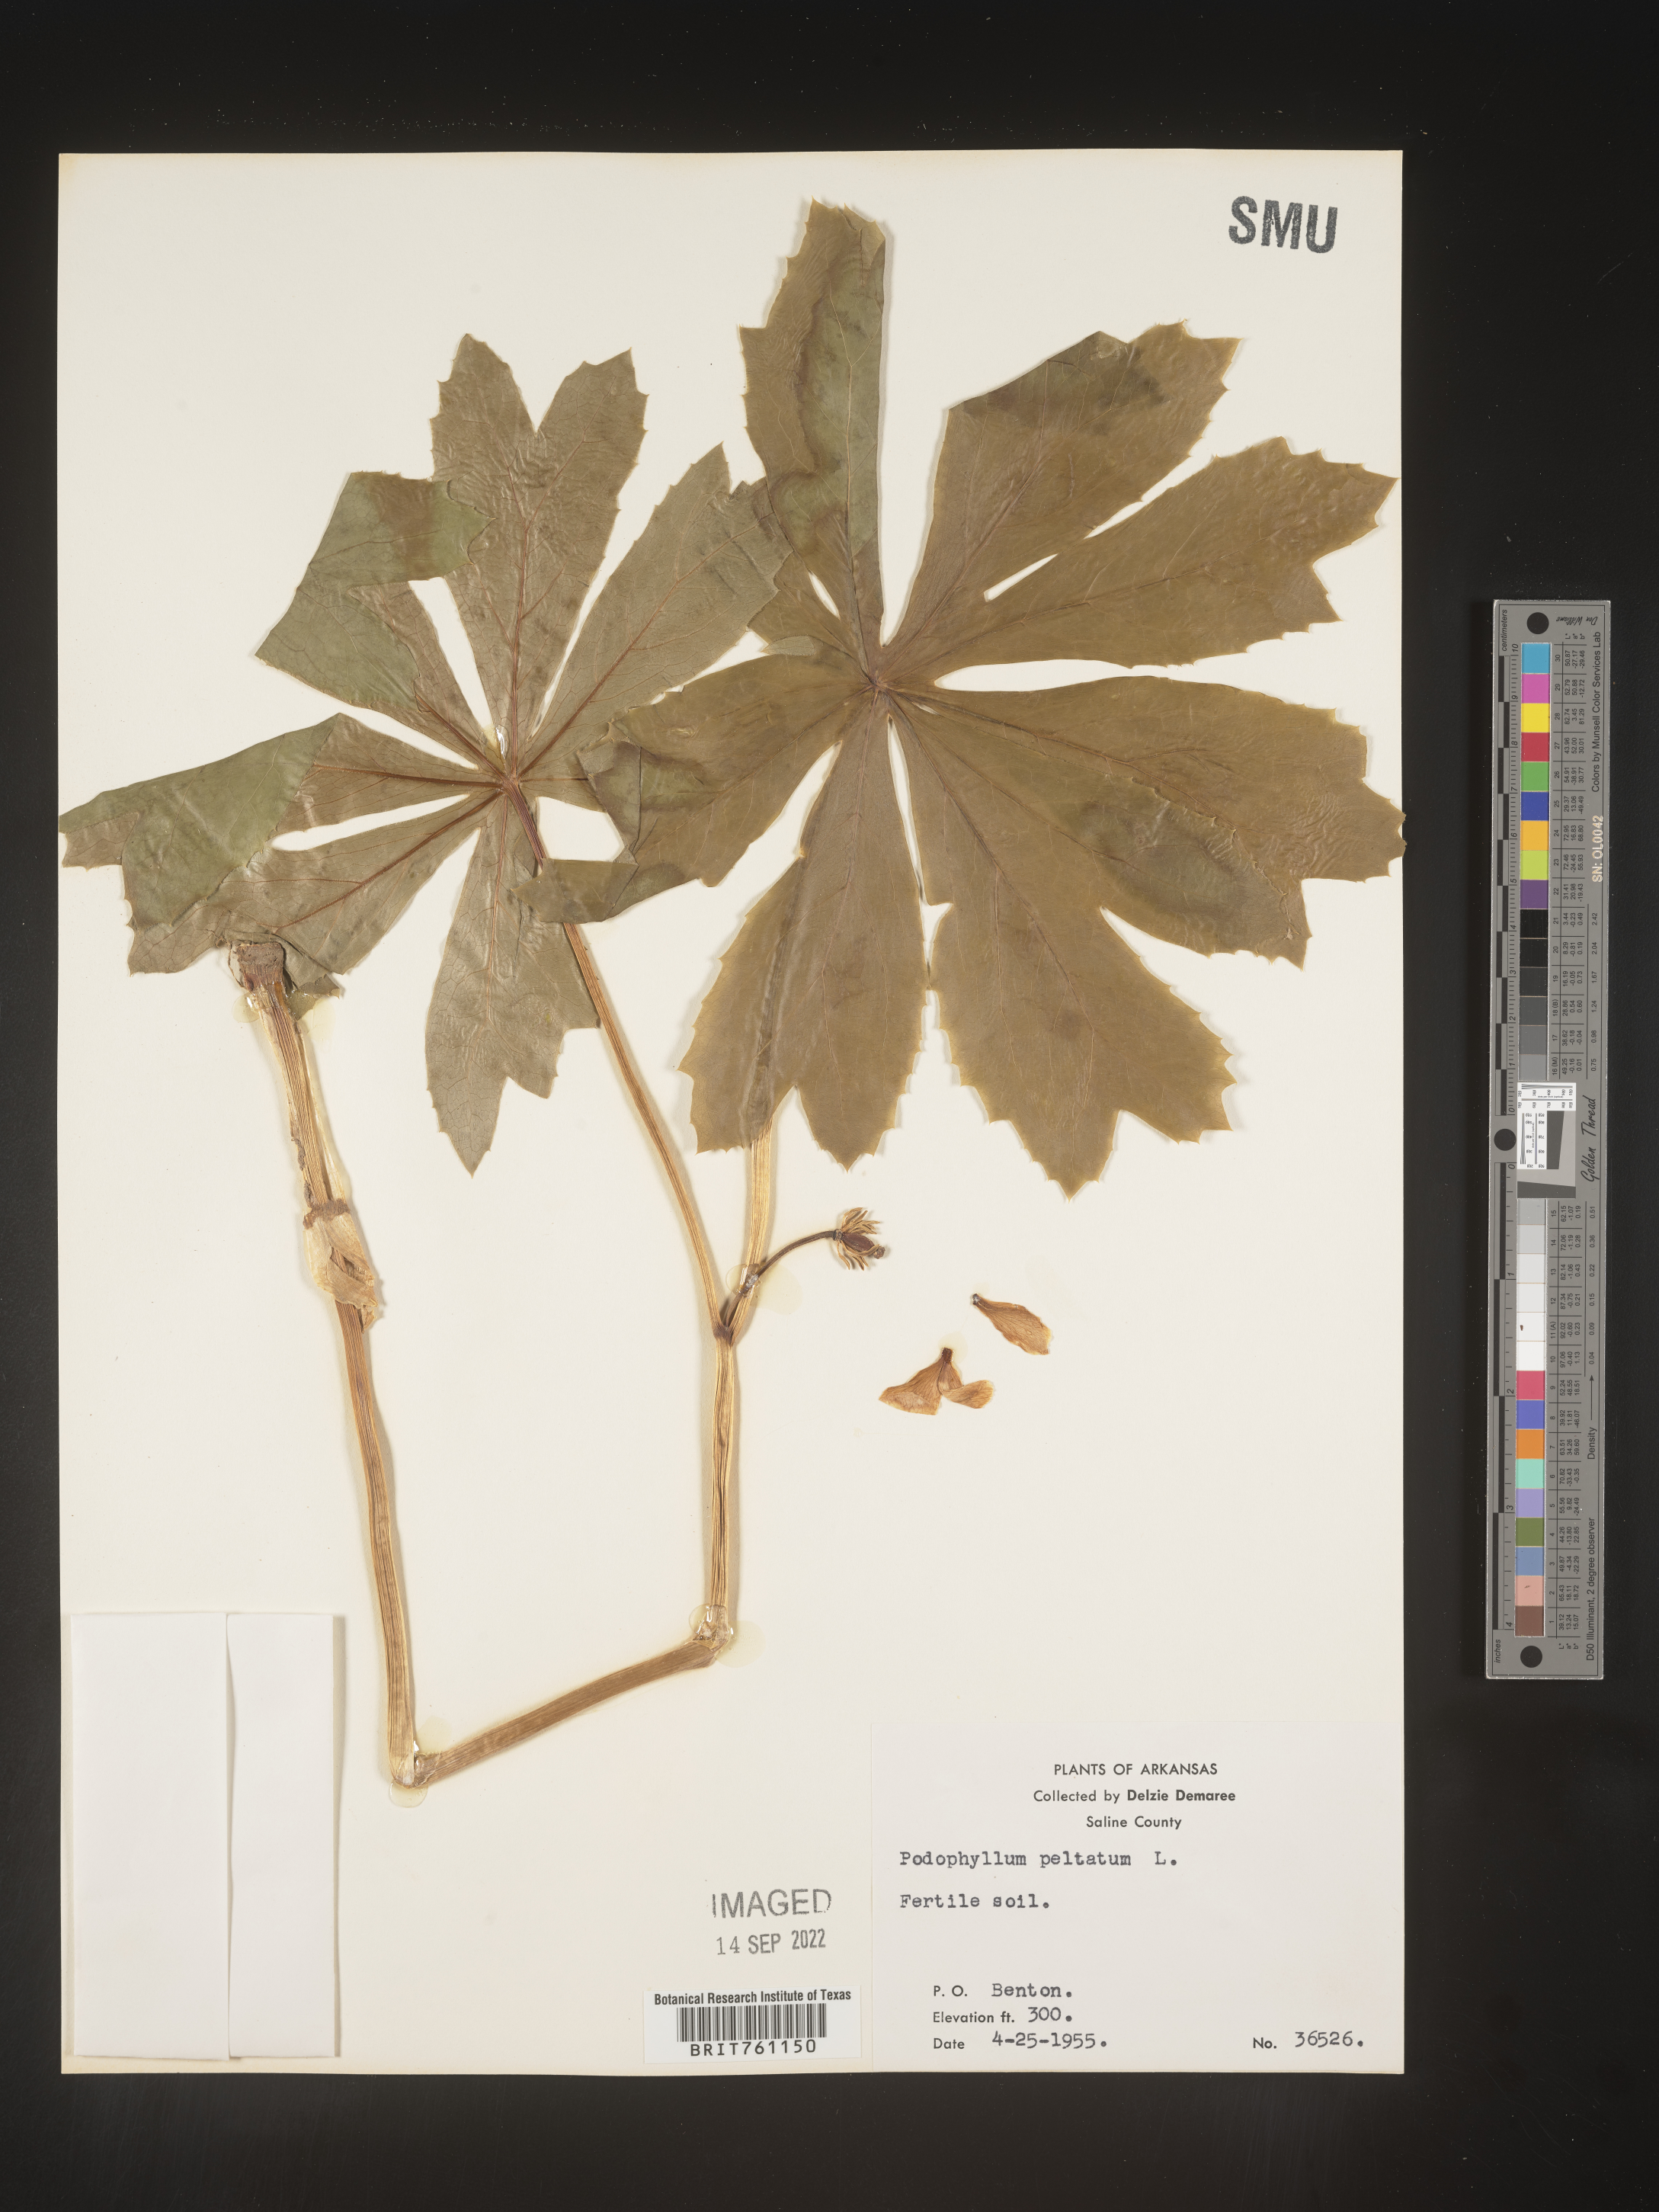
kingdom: Plantae
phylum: Tracheophyta
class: Magnoliopsida
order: Ranunculales
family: Berberidaceae
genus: Podophyllum
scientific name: Podophyllum peltatum
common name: Wild mandrake
